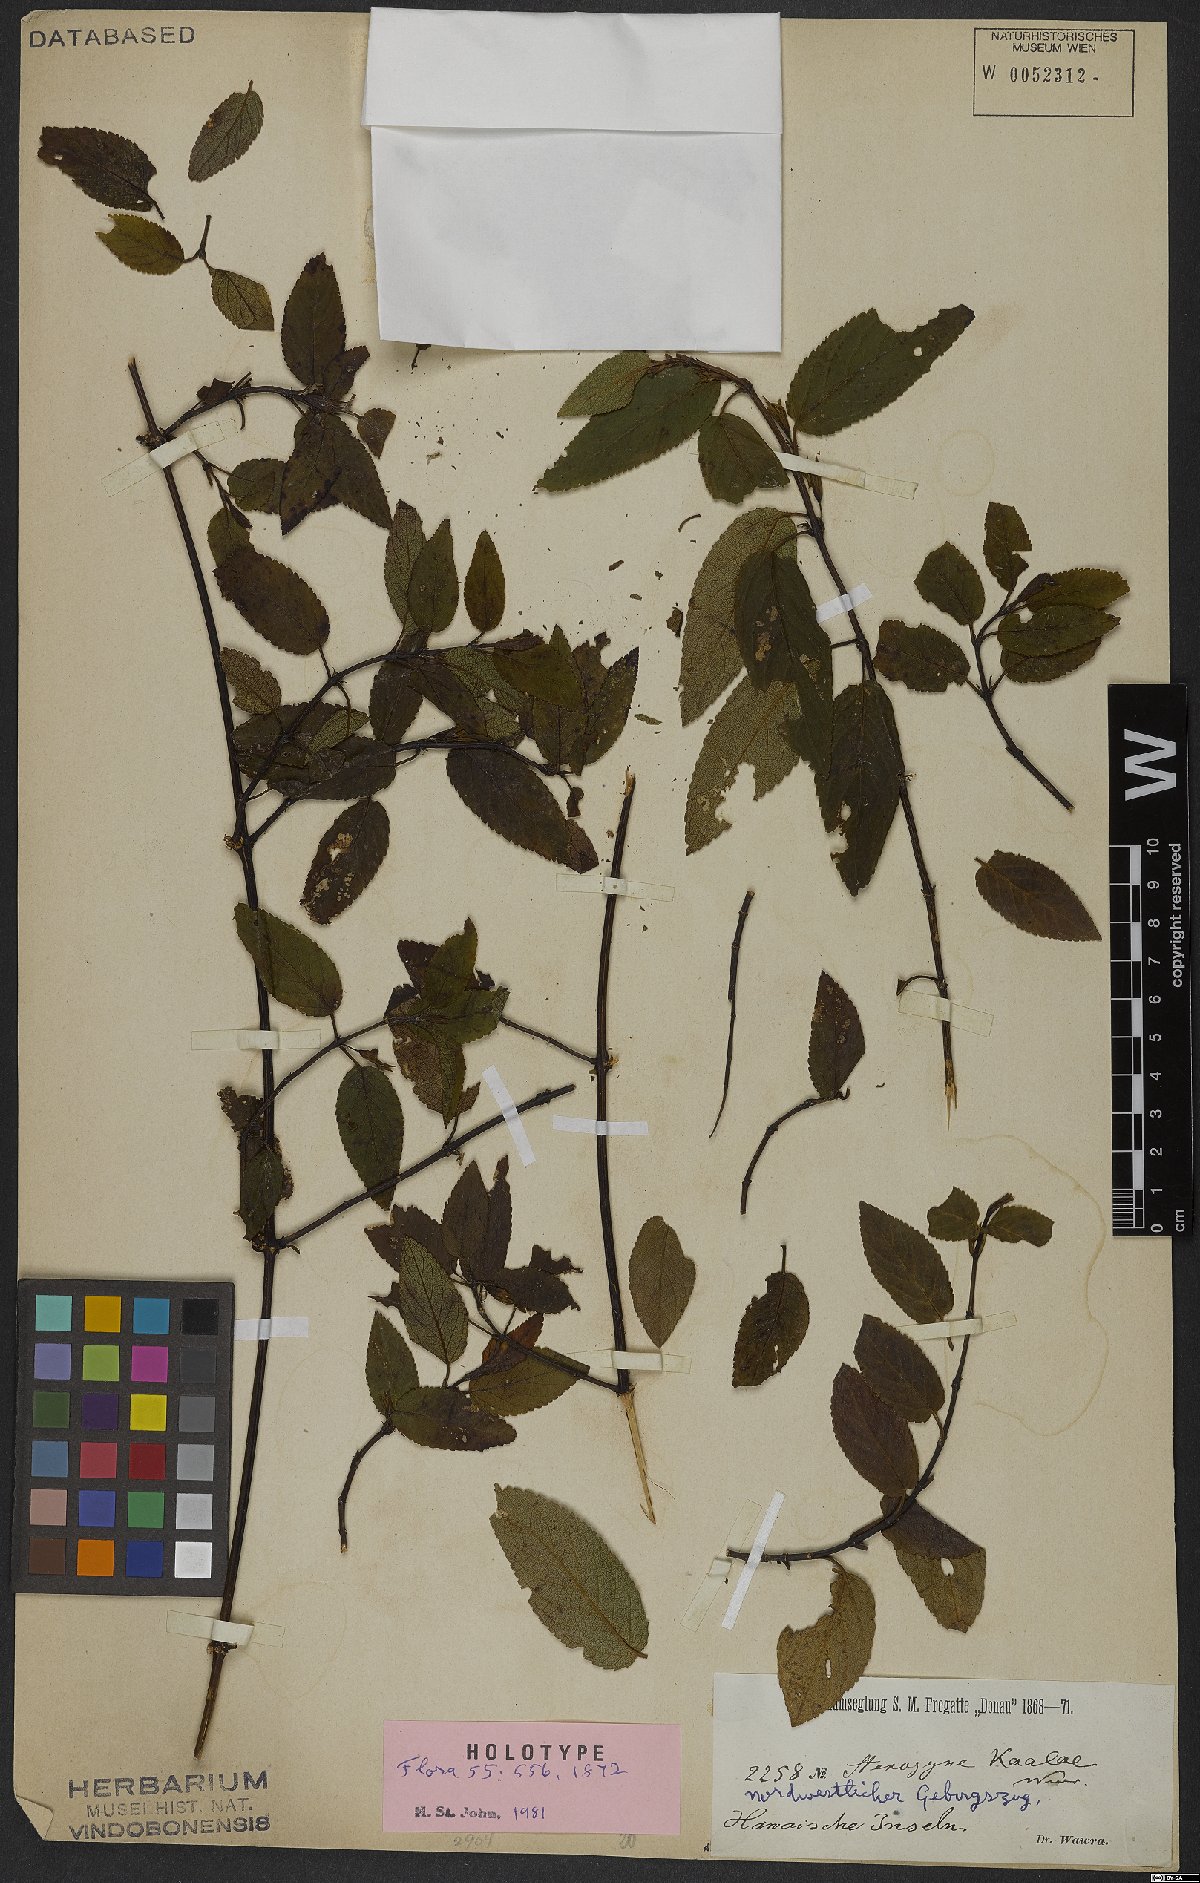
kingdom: Plantae
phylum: Tracheophyta
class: Magnoliopsida
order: Lamiales
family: Lamiaceae
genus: Stenogyne
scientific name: Stenogyne kaaleae
